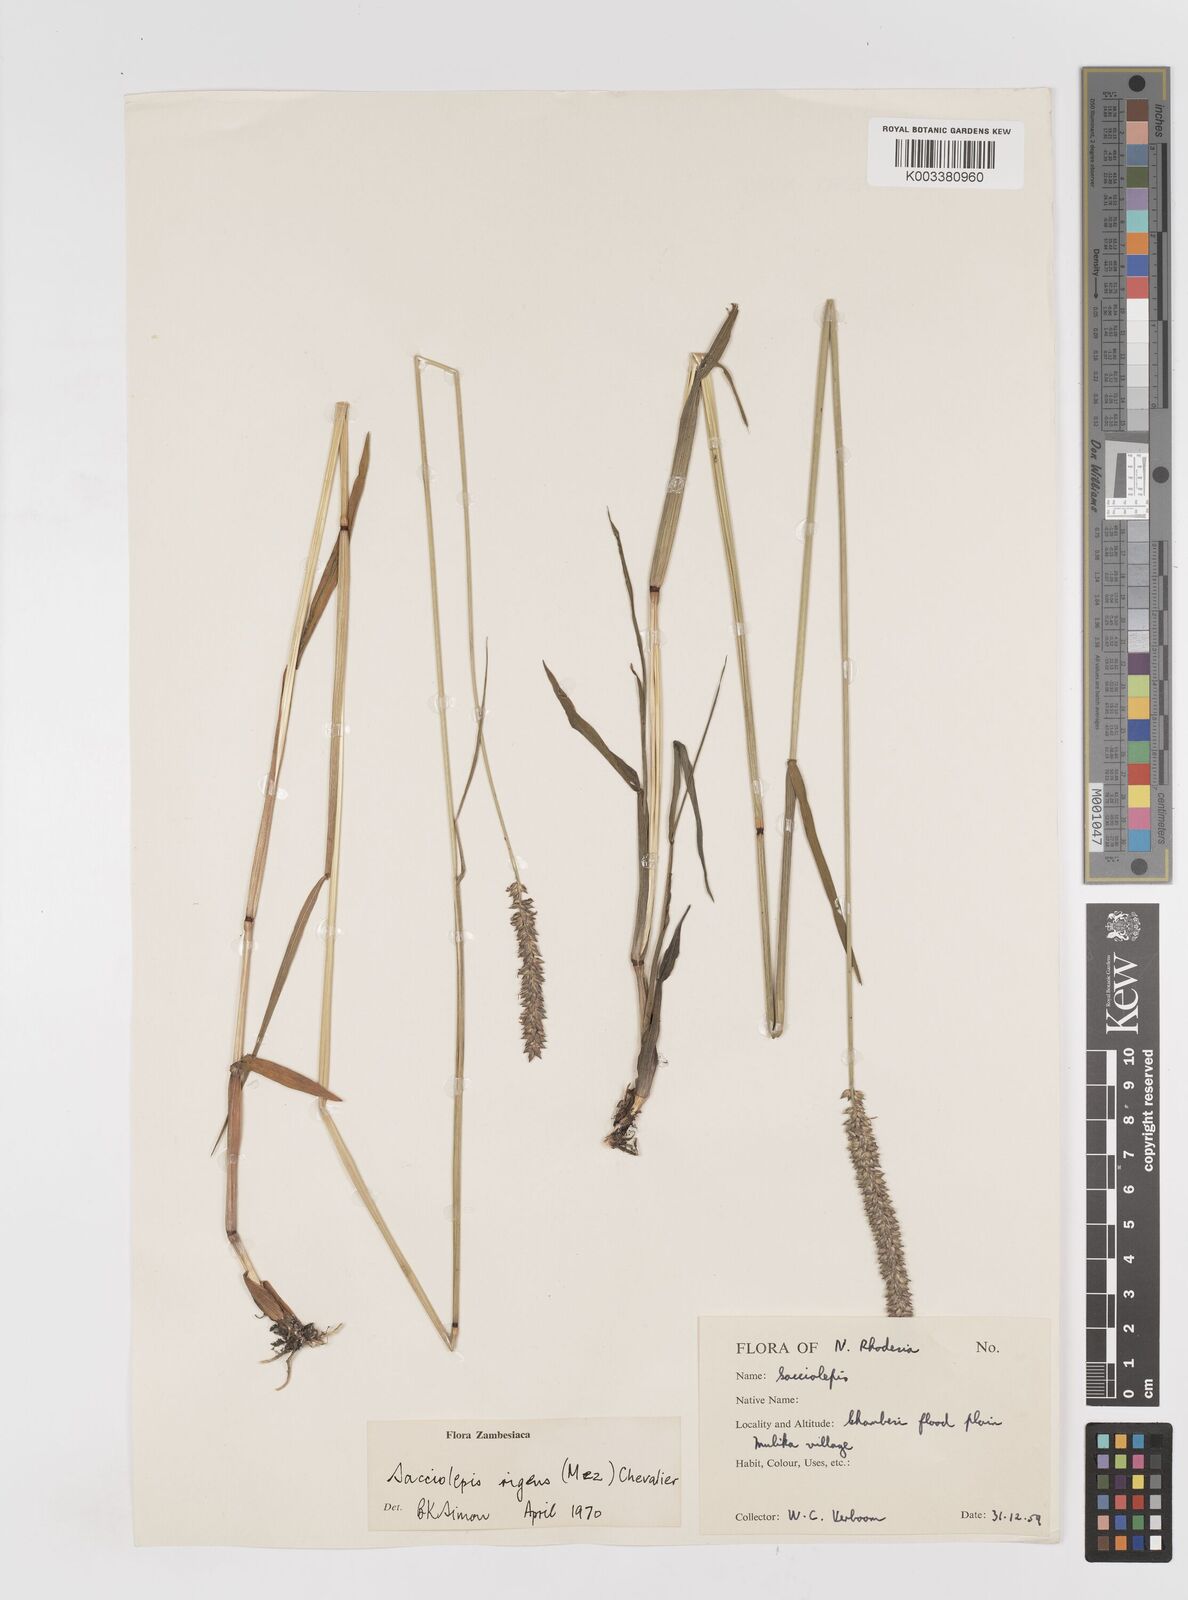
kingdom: Plantae
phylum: Tracheophyta
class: Liliopsida
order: Poales
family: Poaceae
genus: Sacciolepis
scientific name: Sacciolepis typhura
